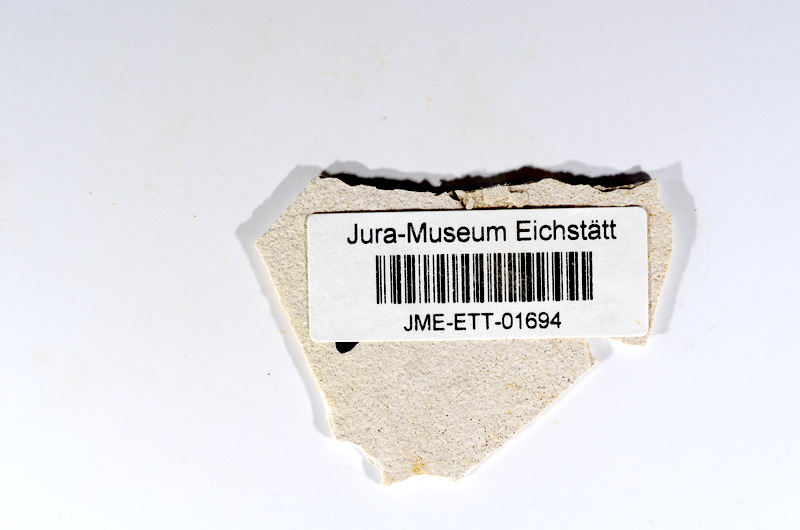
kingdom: Animalia
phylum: Chordata
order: Salmoniformes
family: Orthogonikleithridae
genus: Orthogonikleithrus
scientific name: Orthogonikleithrus hoelli
